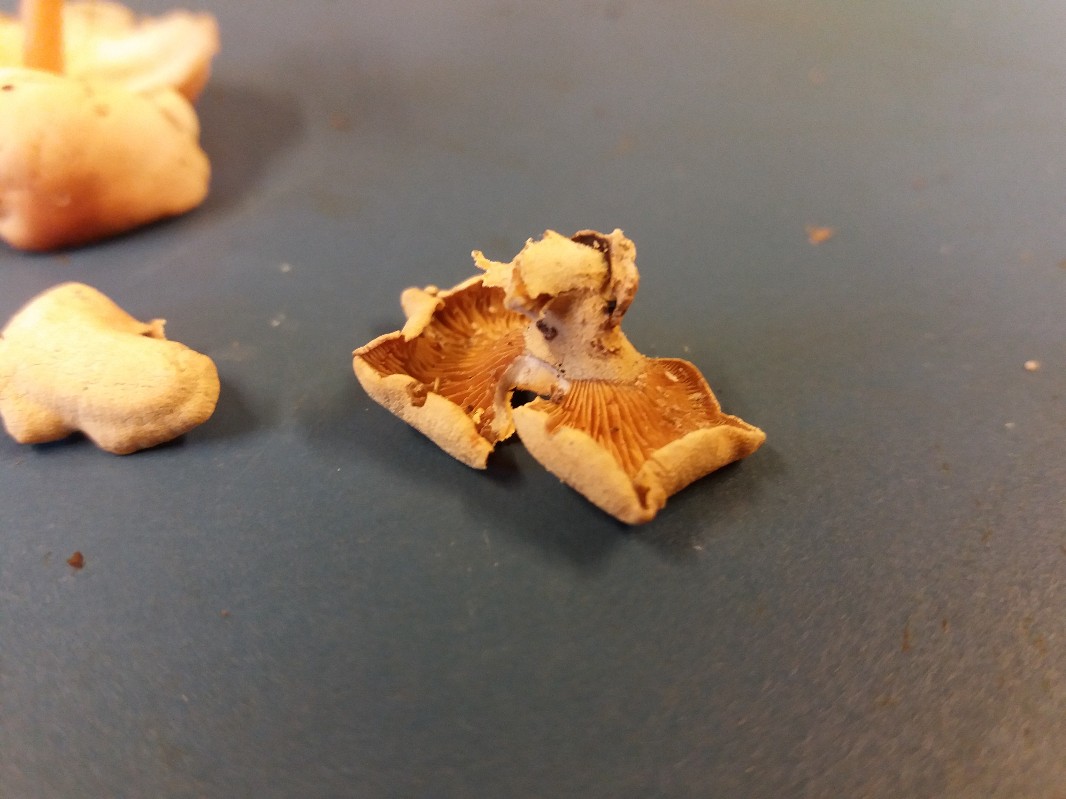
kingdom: Fungi
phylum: Basidiomycota
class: Agaricomycetes
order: Agaricales
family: Mycenaceae
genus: Panellus
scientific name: Panellus stipticus
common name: kliddet epaulethat
